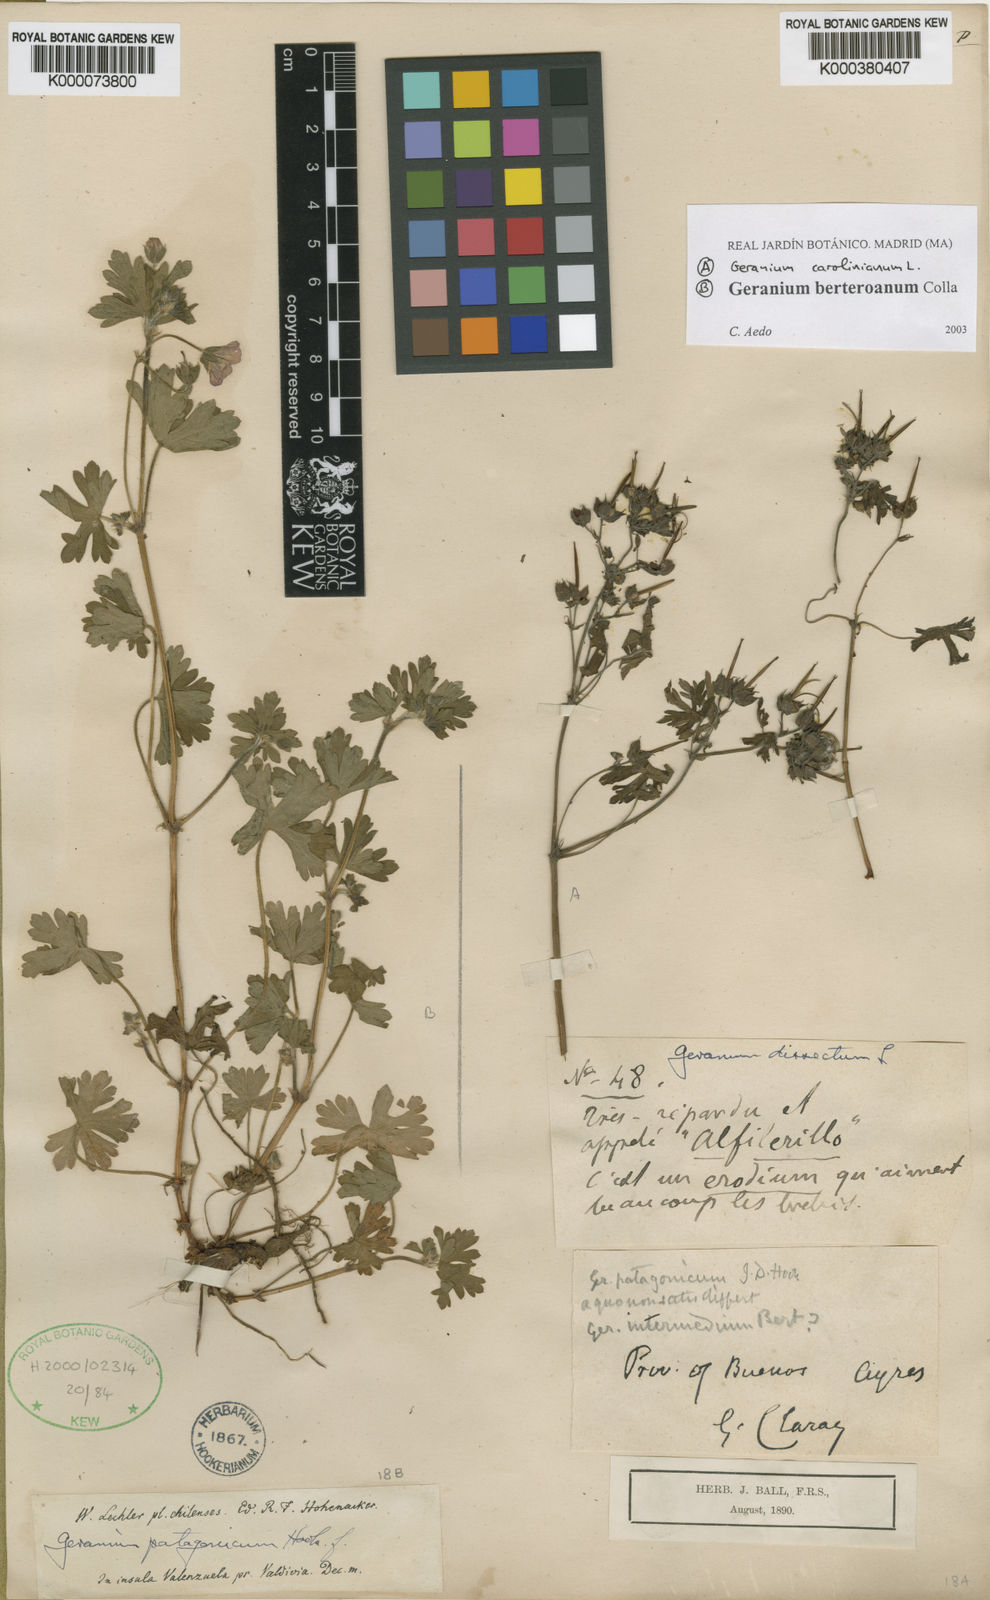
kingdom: Plantae
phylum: Tracheophyta
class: Magnoliopsida
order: Geraniales
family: Geraniaceae
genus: Geranium
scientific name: Geranium carolinianum
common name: Carolina crane's-bill
